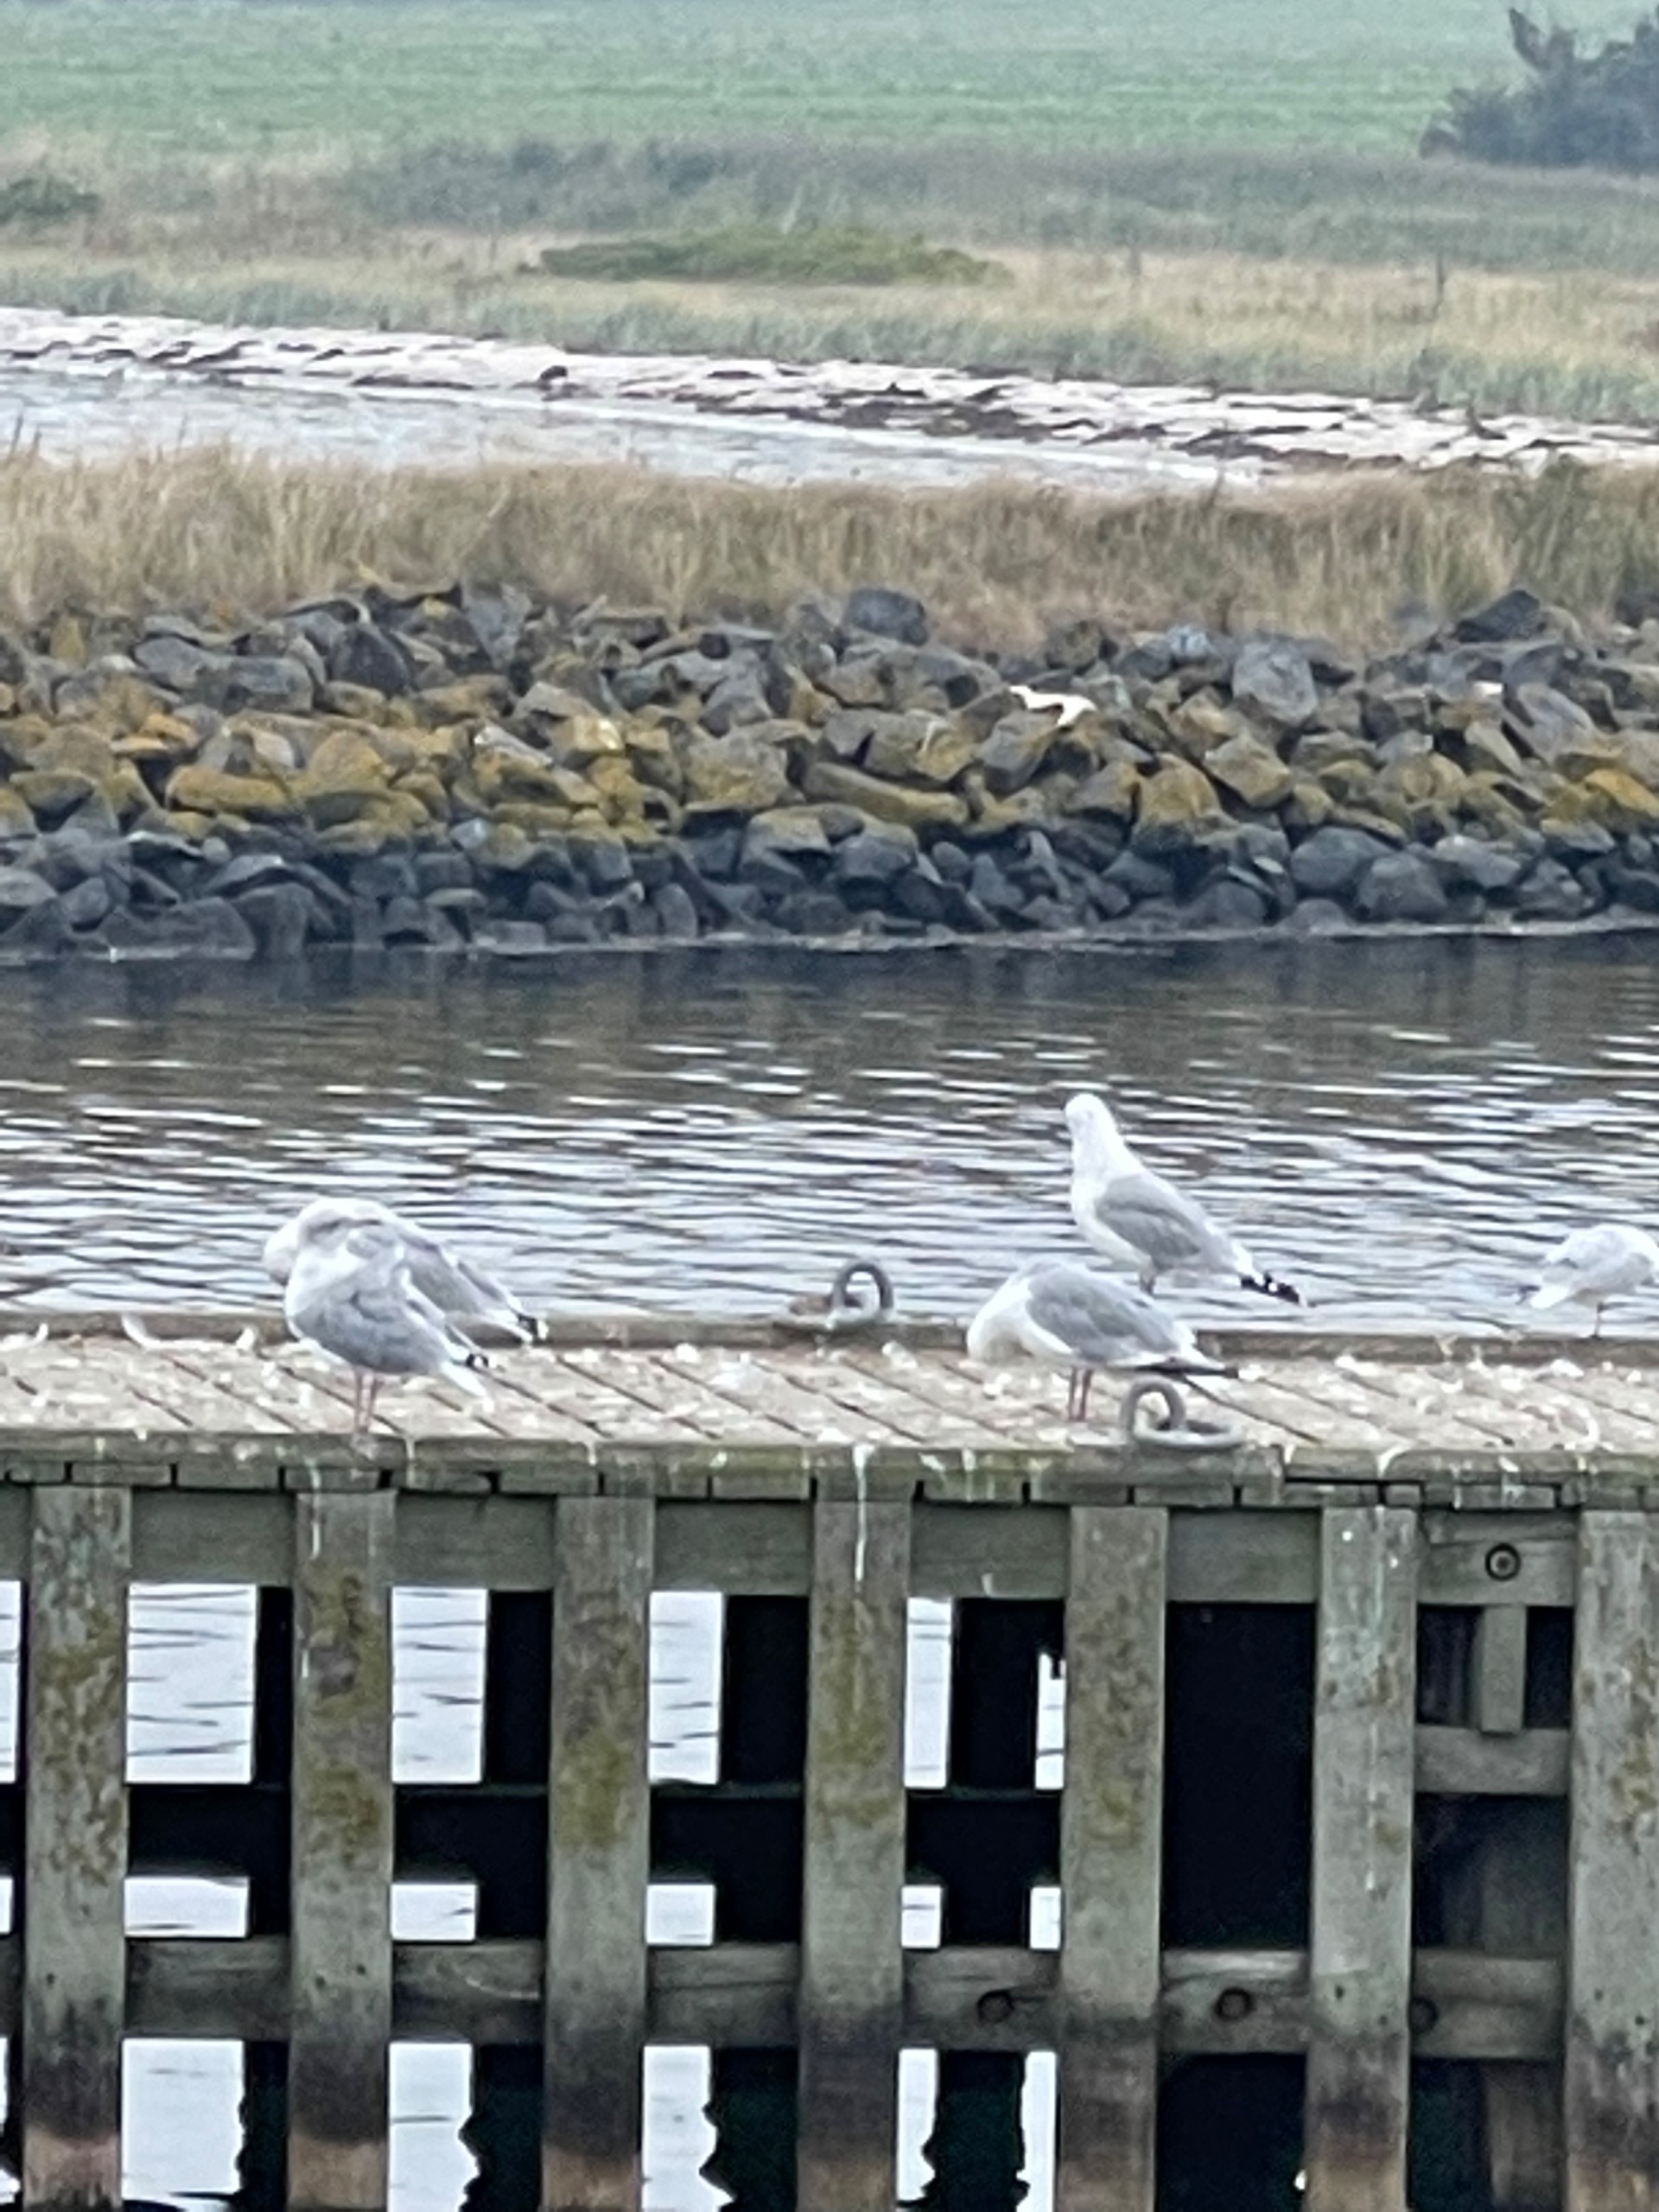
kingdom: Animalia
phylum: Chordata
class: Aves
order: Charadriiformes
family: Laridae
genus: Larus
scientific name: Larus argentatus
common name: Sølvmåge
